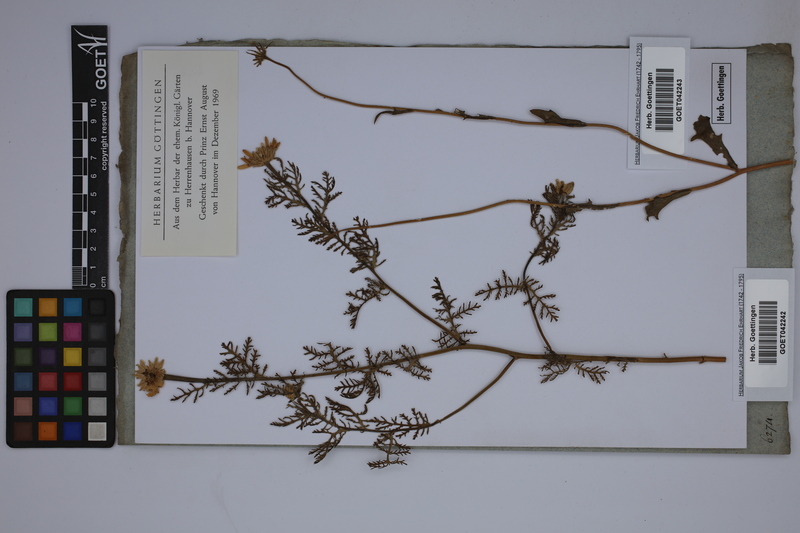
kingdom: Plantae
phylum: Tracheophyta
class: Magnoliopsida
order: Asterales
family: Asteraceae
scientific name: Asteraceae
